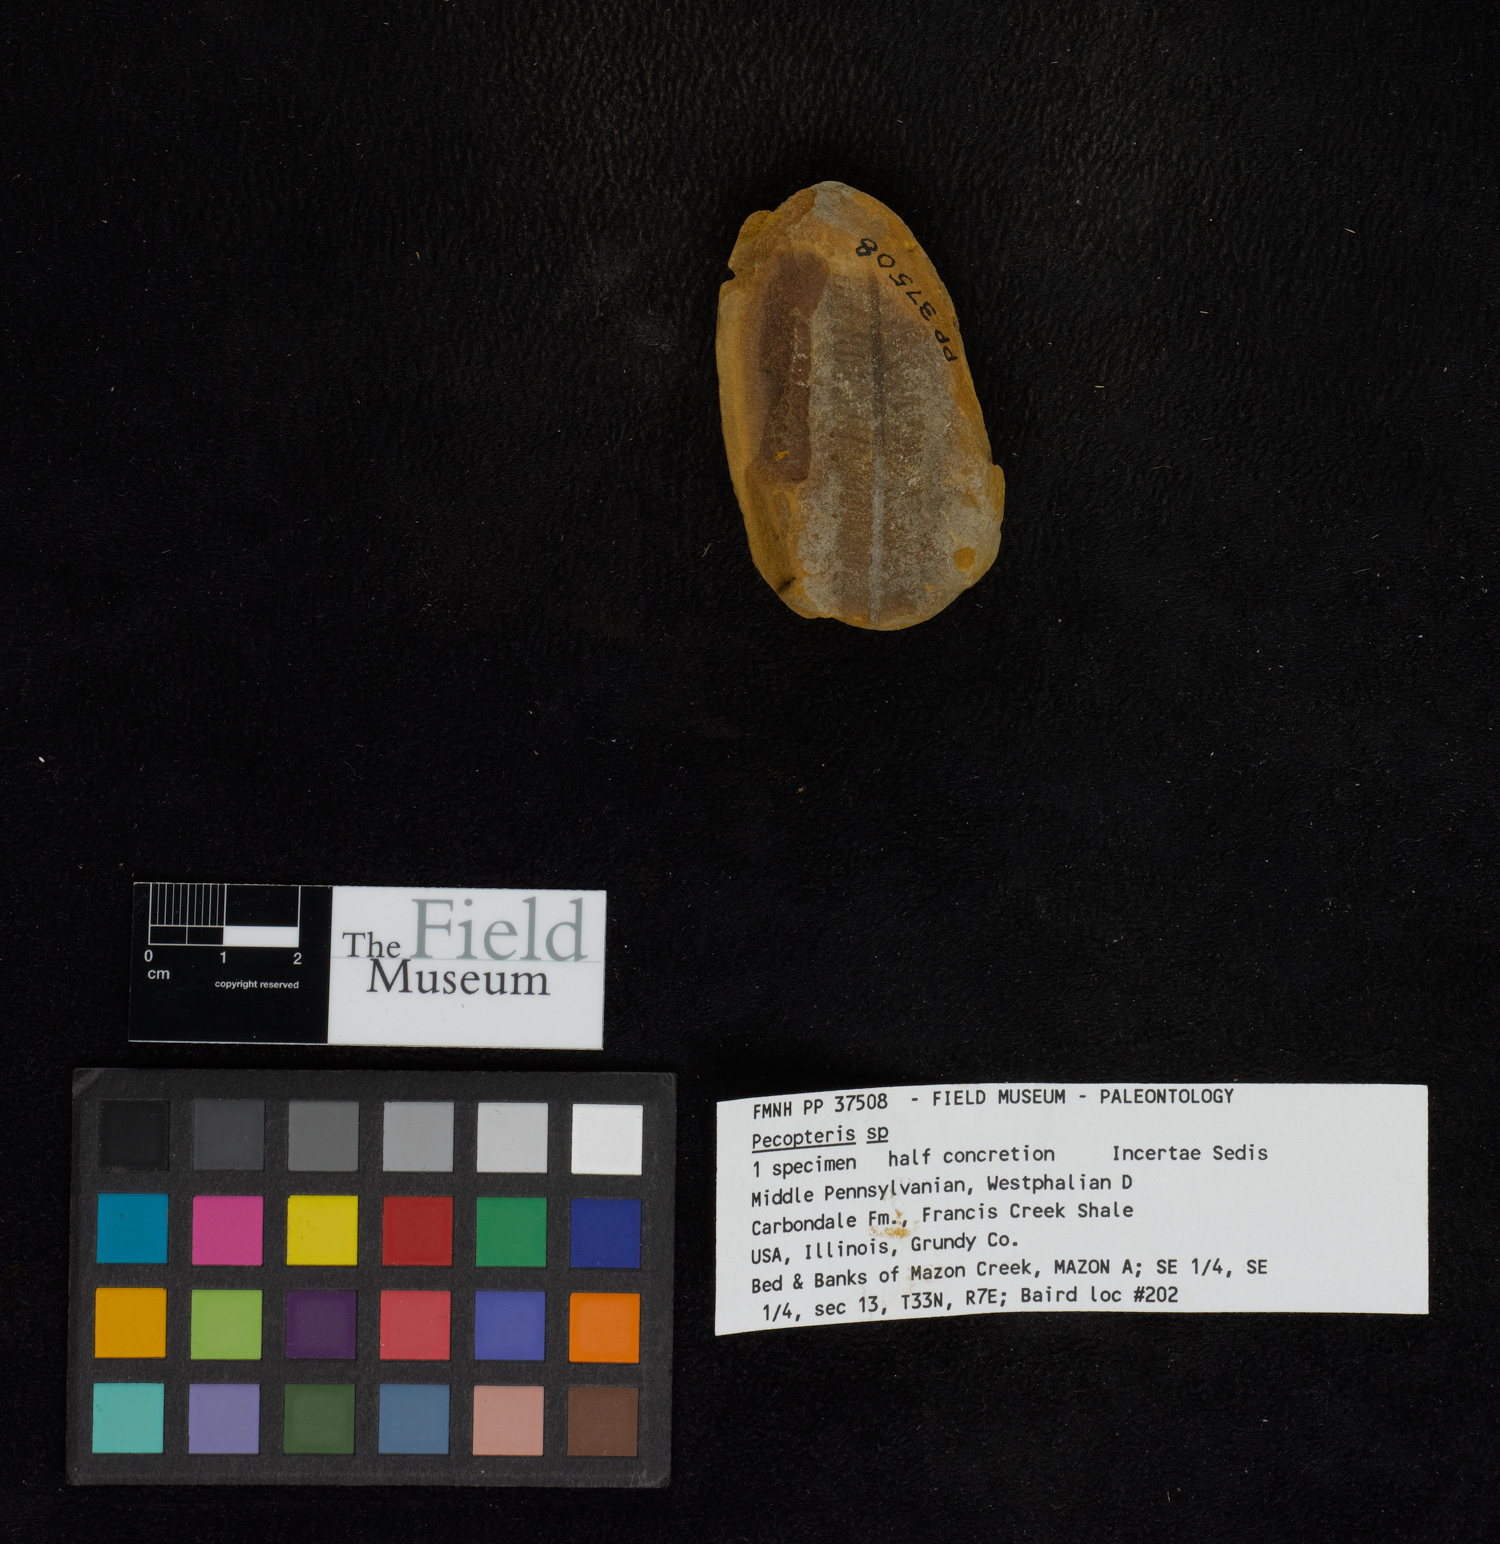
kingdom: Plantae
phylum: Tracheophyta
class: Polypodiopsida
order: Marattiales
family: Asterothecaceae
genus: Pecopteris
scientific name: Pecopteris
